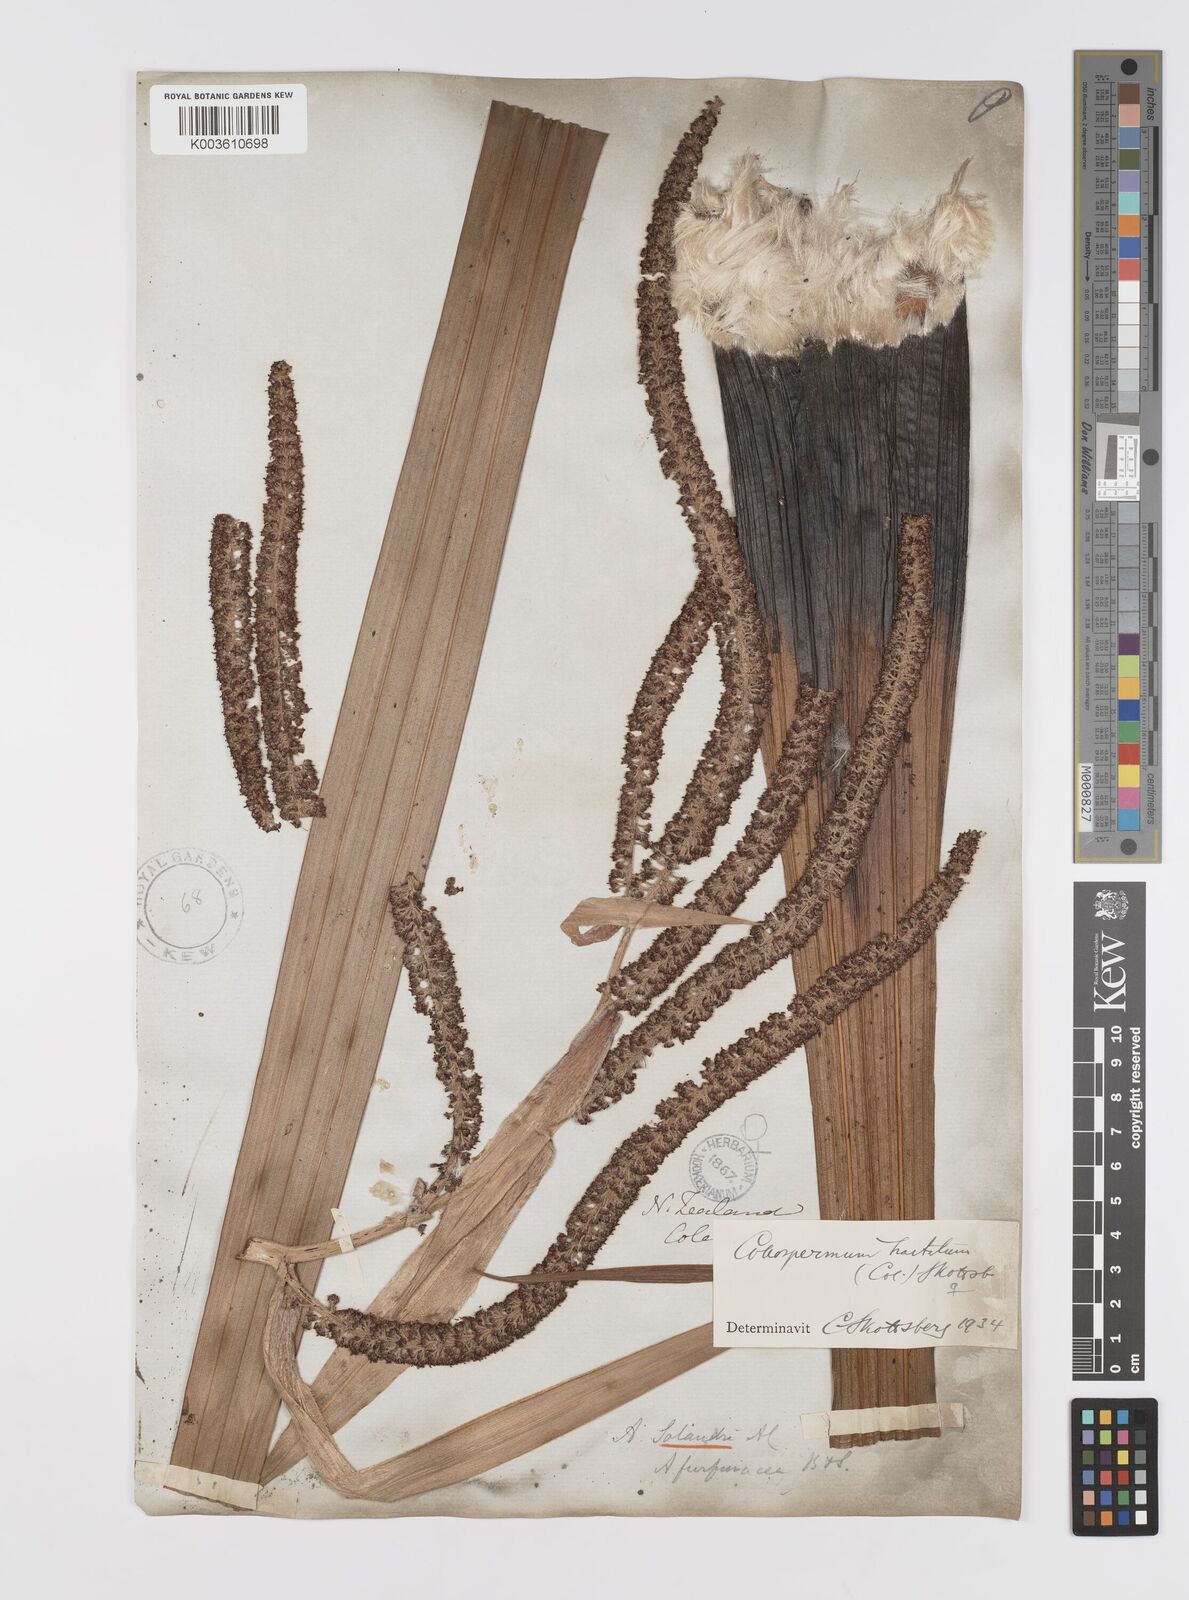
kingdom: Plantae
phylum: Tracheophyta
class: Liliopsida
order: Asparagales
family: Asteliaceae
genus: Astelia
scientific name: Astelia hastata
